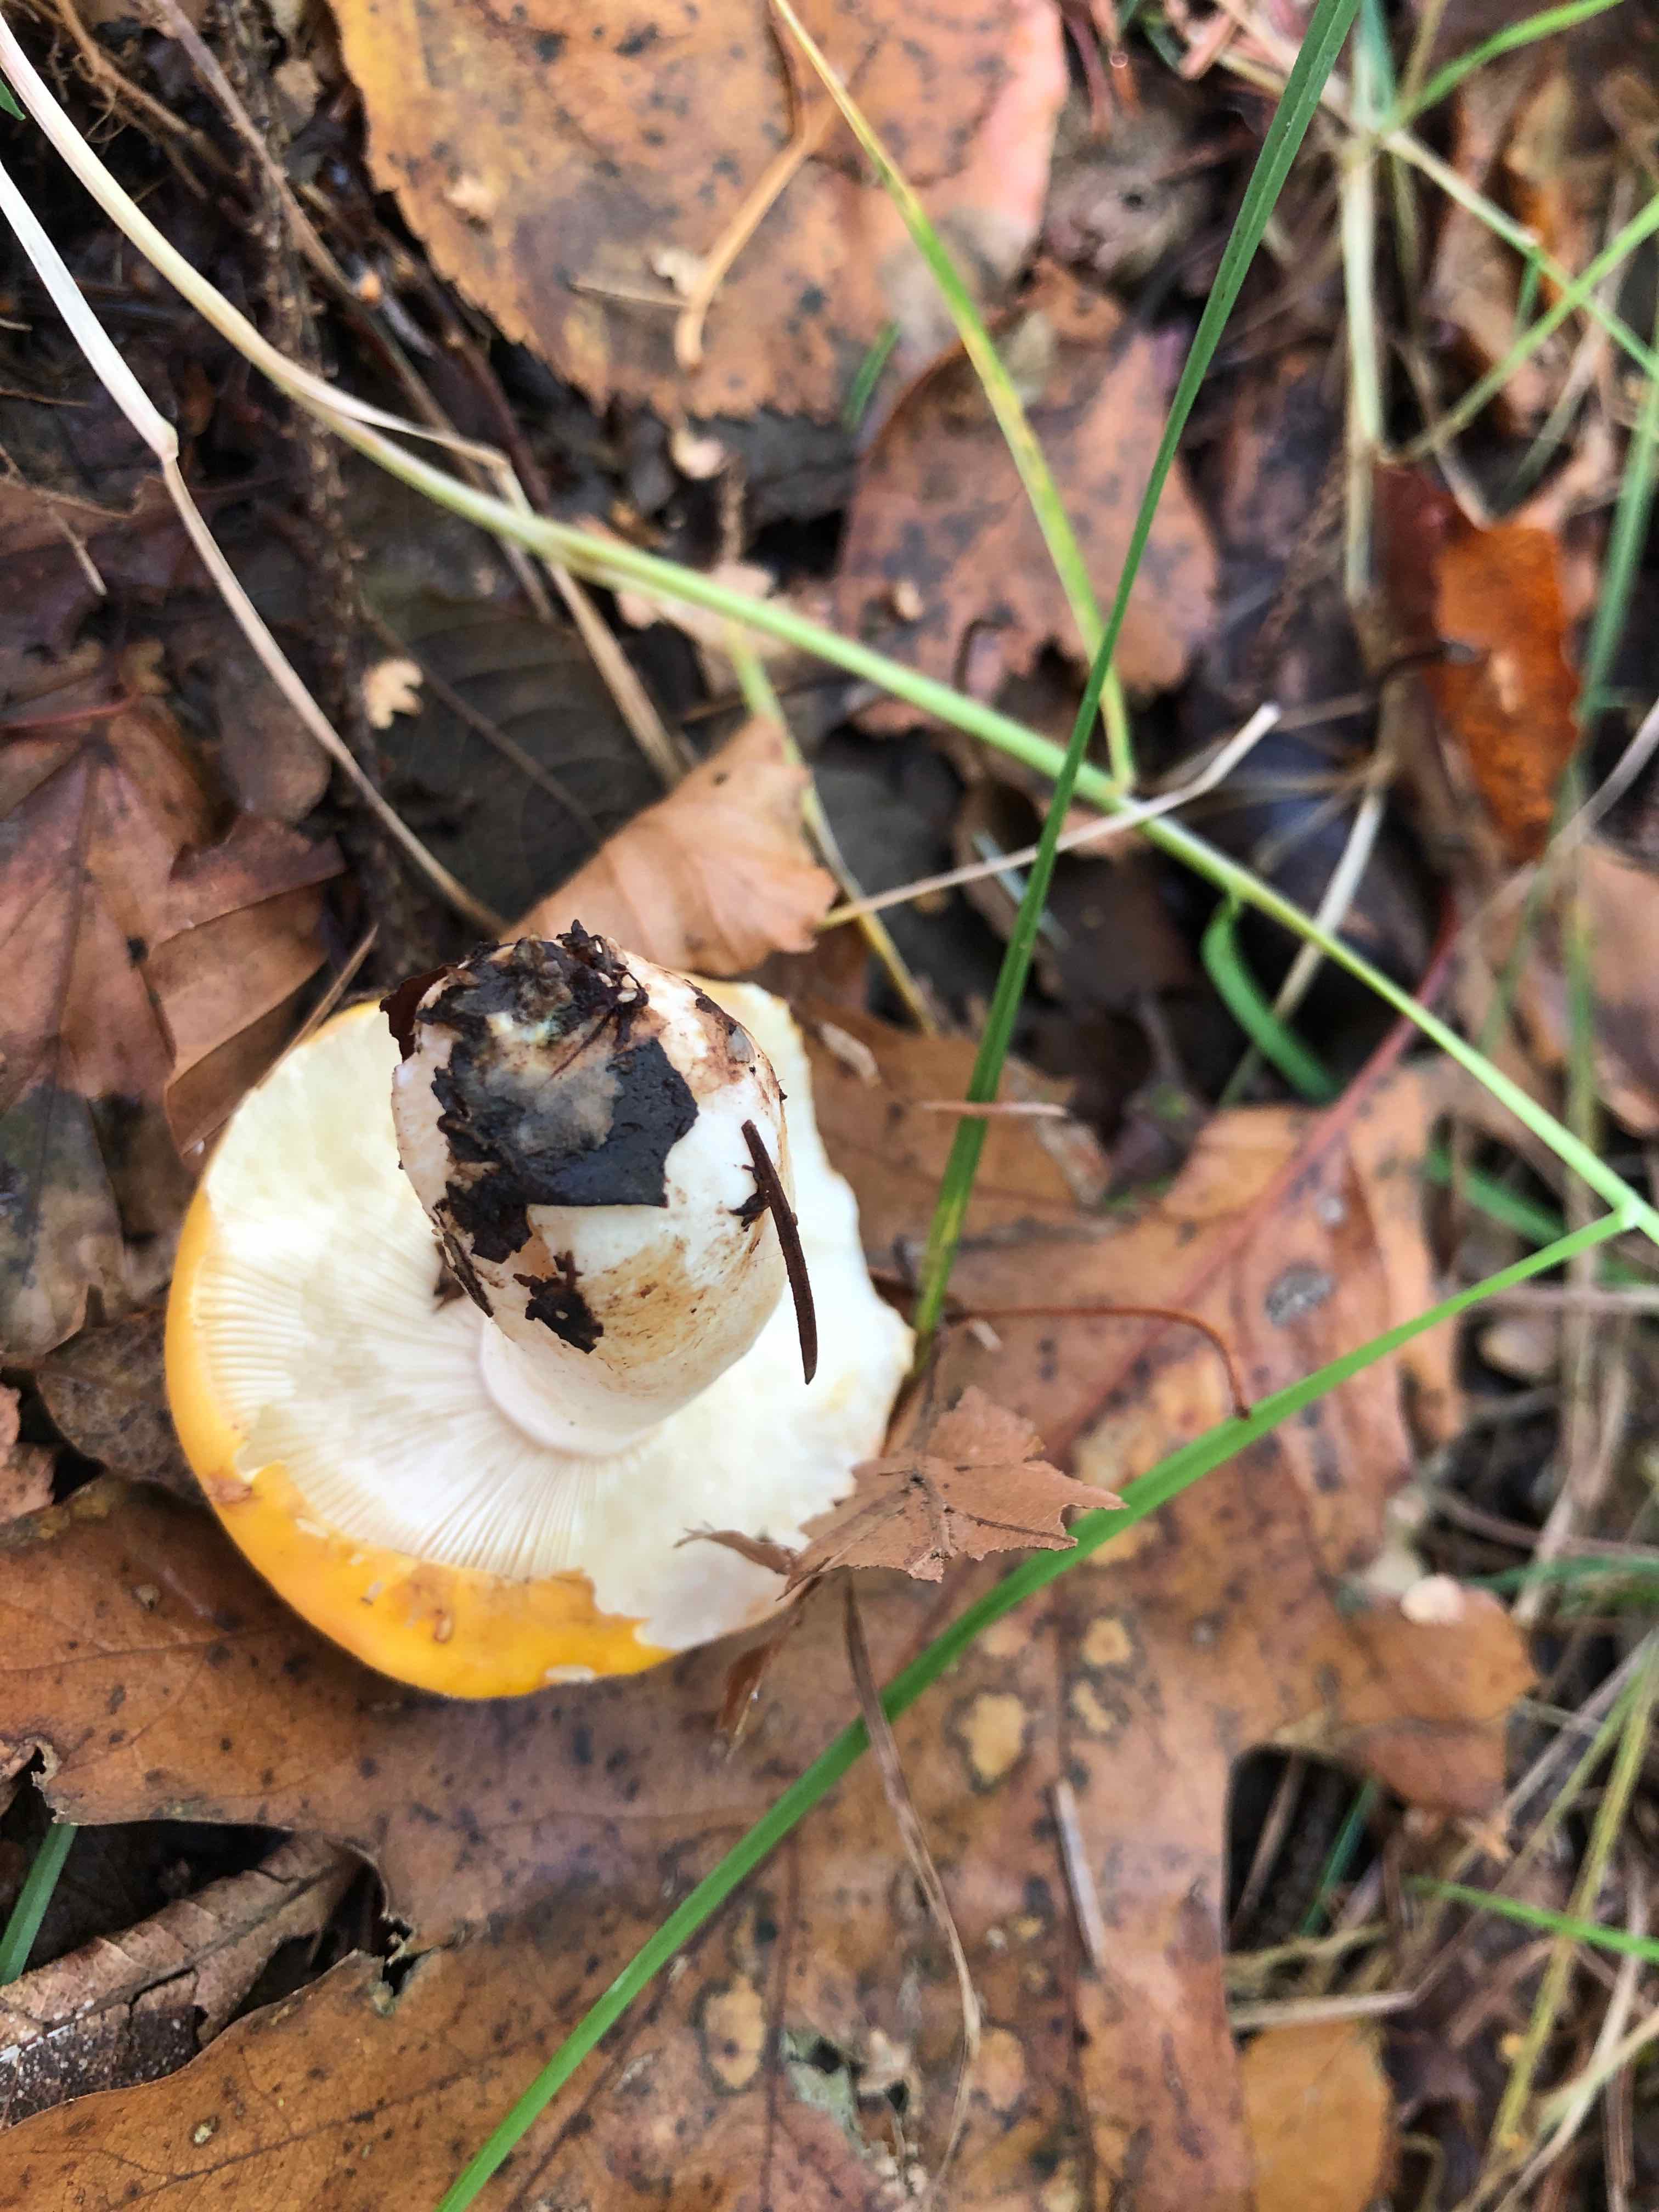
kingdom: Fungi
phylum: Basidiomycota
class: Agaricomycetes
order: Russulales
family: Russulaceae
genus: Russula
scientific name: Russula claroflava
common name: birke-skørhat
